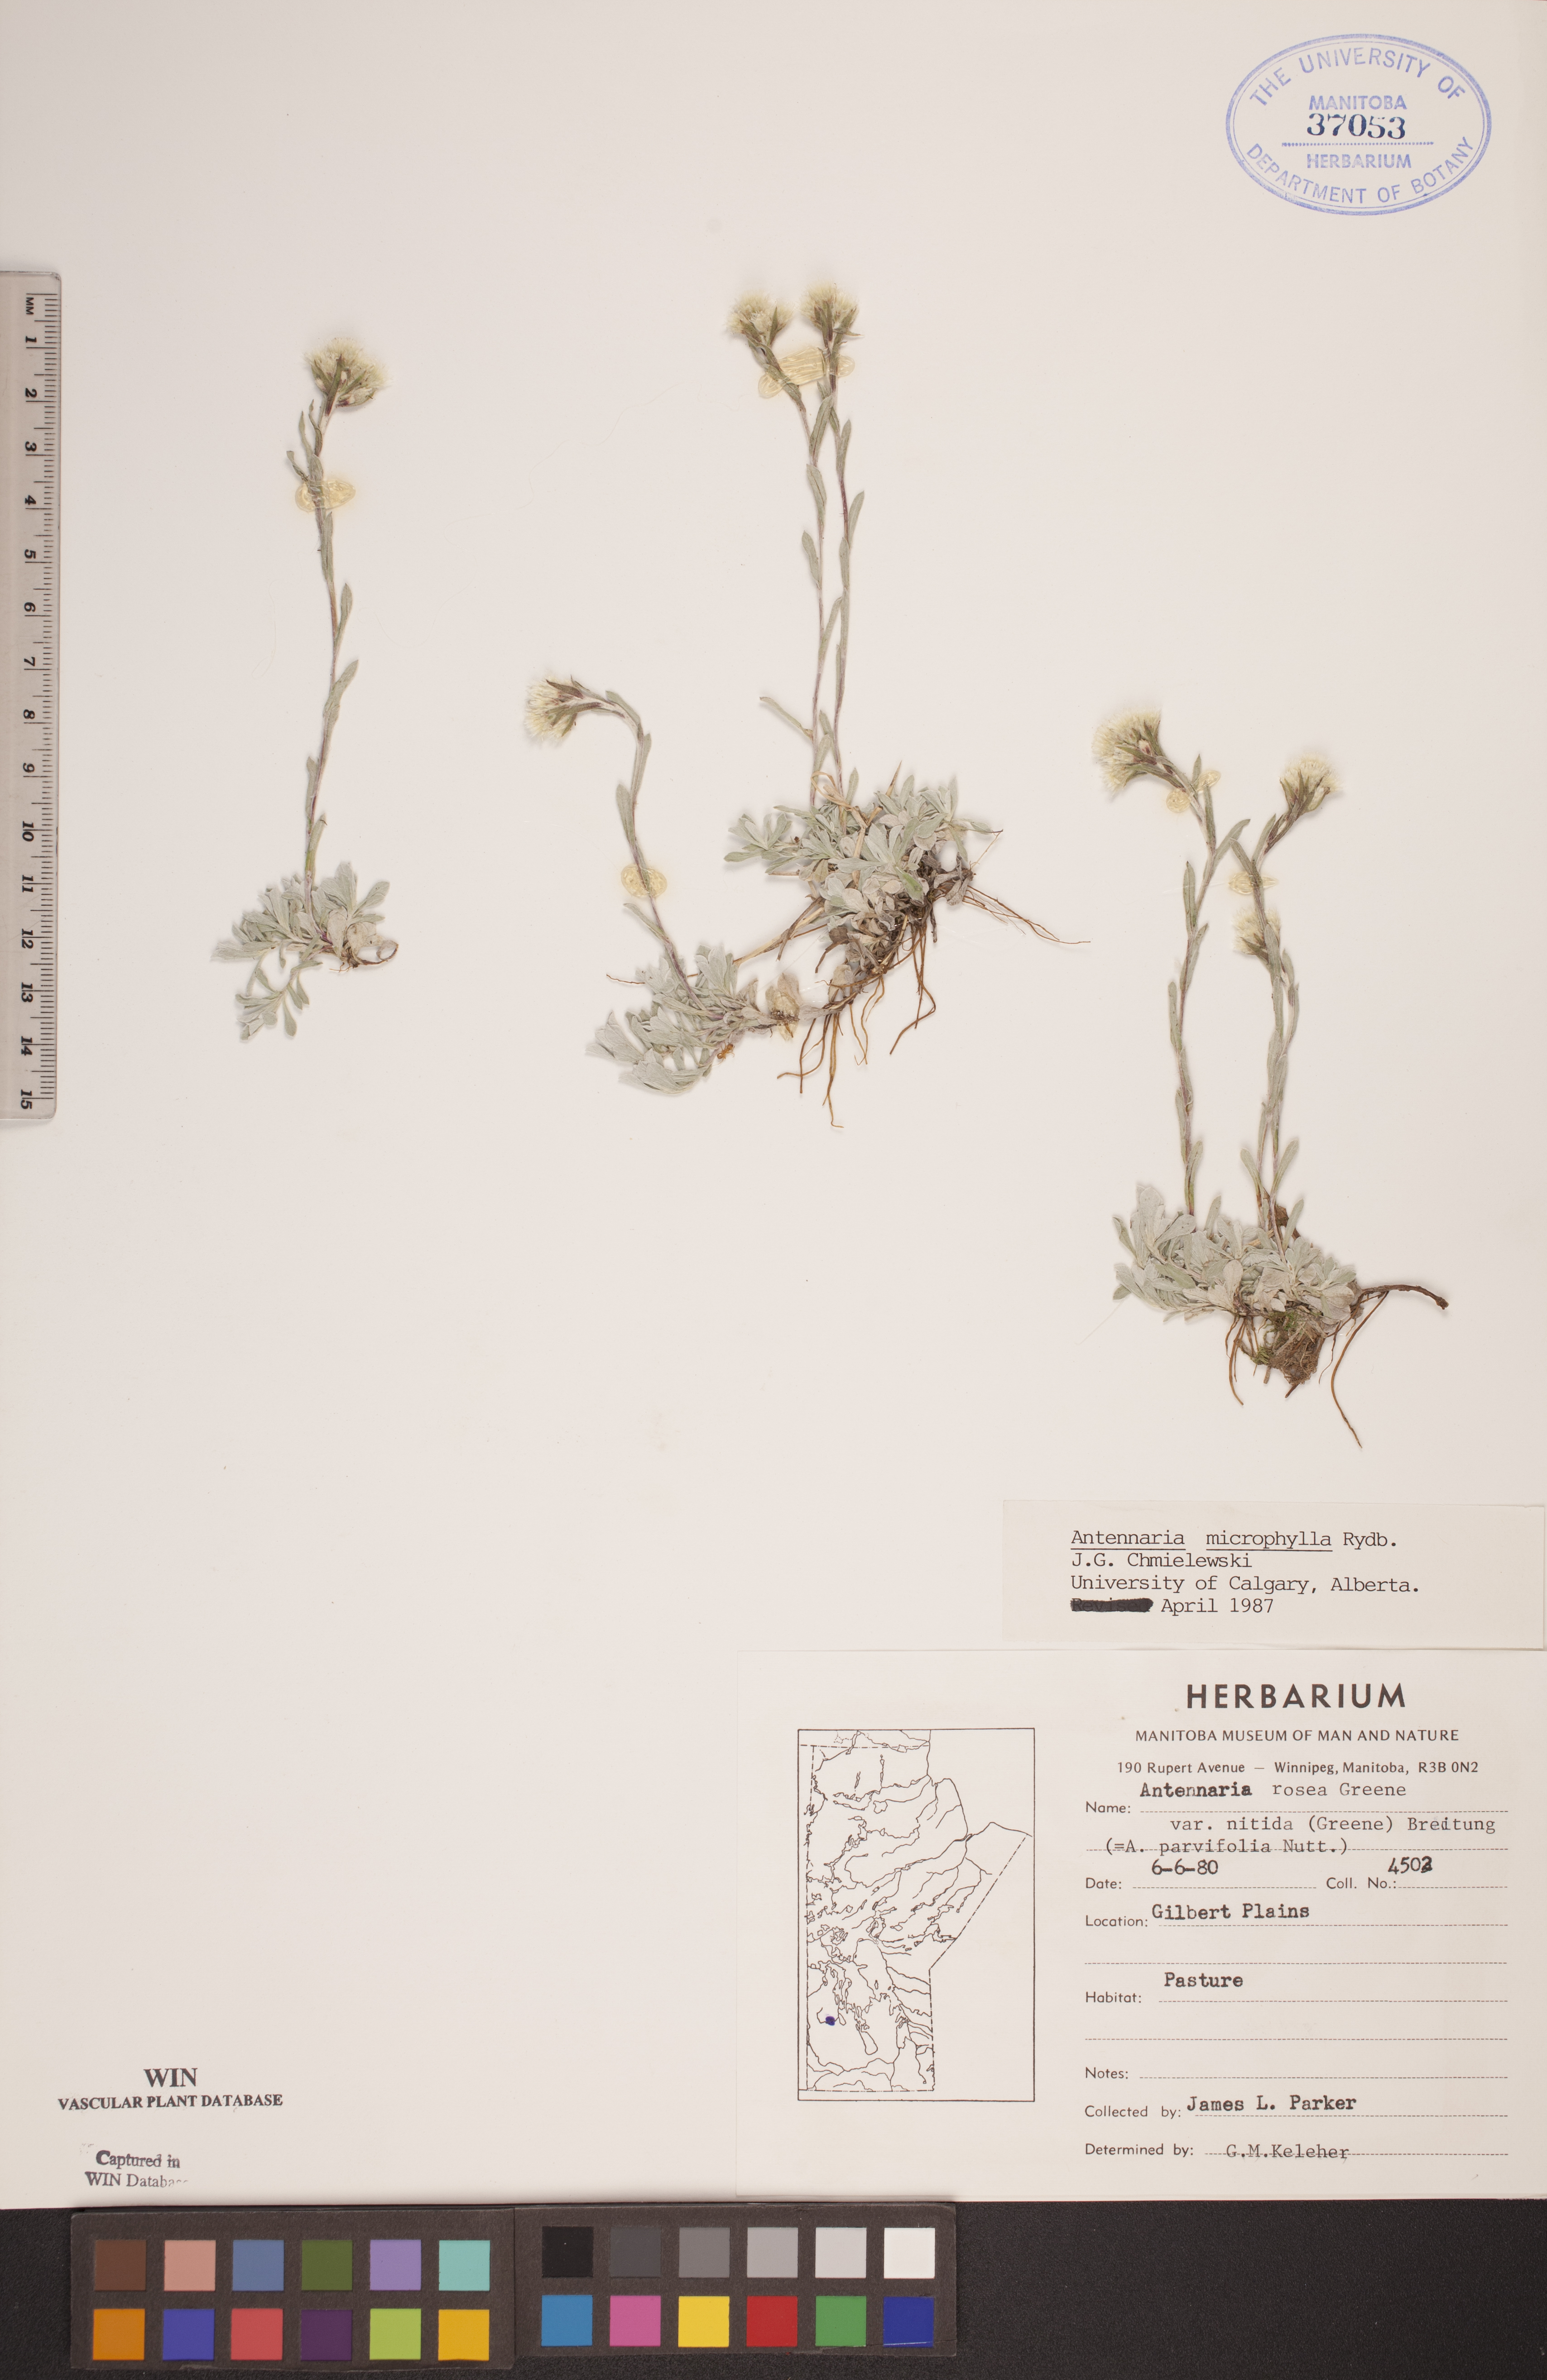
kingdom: Plantae
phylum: Tracheophyta
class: Magnoliopsida
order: Asterales
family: Asteraceae
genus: Antennaria
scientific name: Antennaria microphylla
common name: Littleleaf pussytoes
